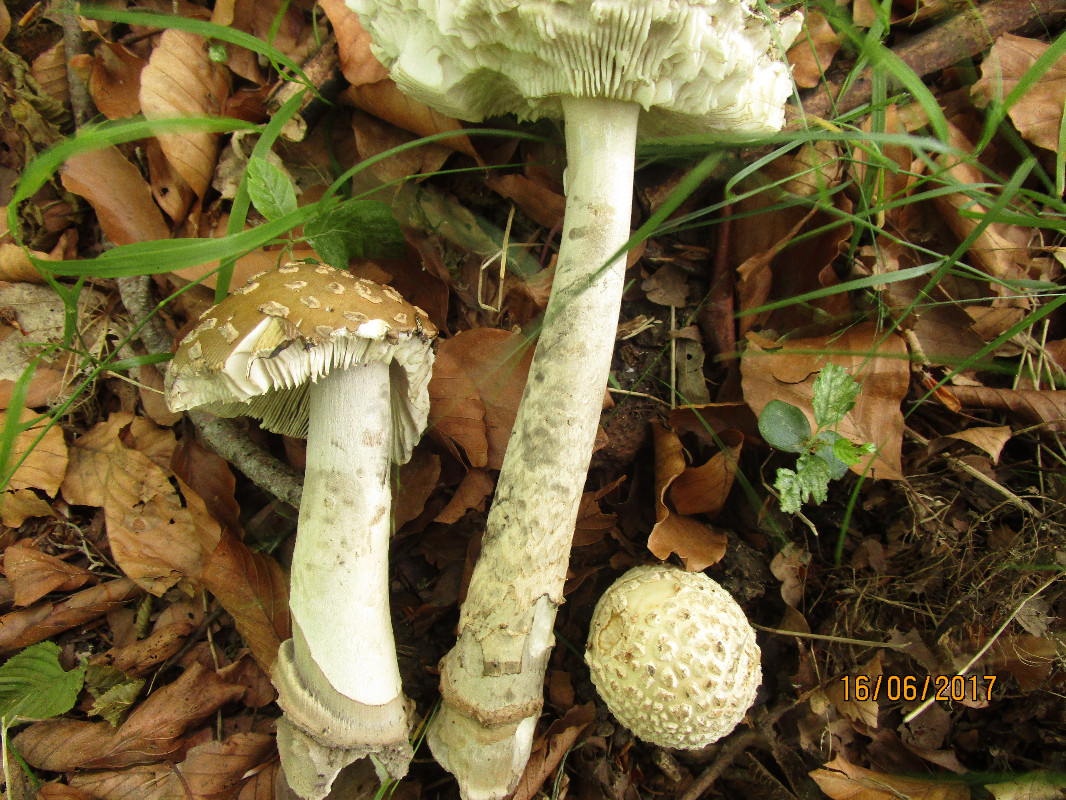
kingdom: Fungi
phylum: Basidiomycota
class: Agaricomycetes
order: Agaricales
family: Amanitaceae
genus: Amanita
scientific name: Amanita ceciliae
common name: stor kam-fluesvamp
